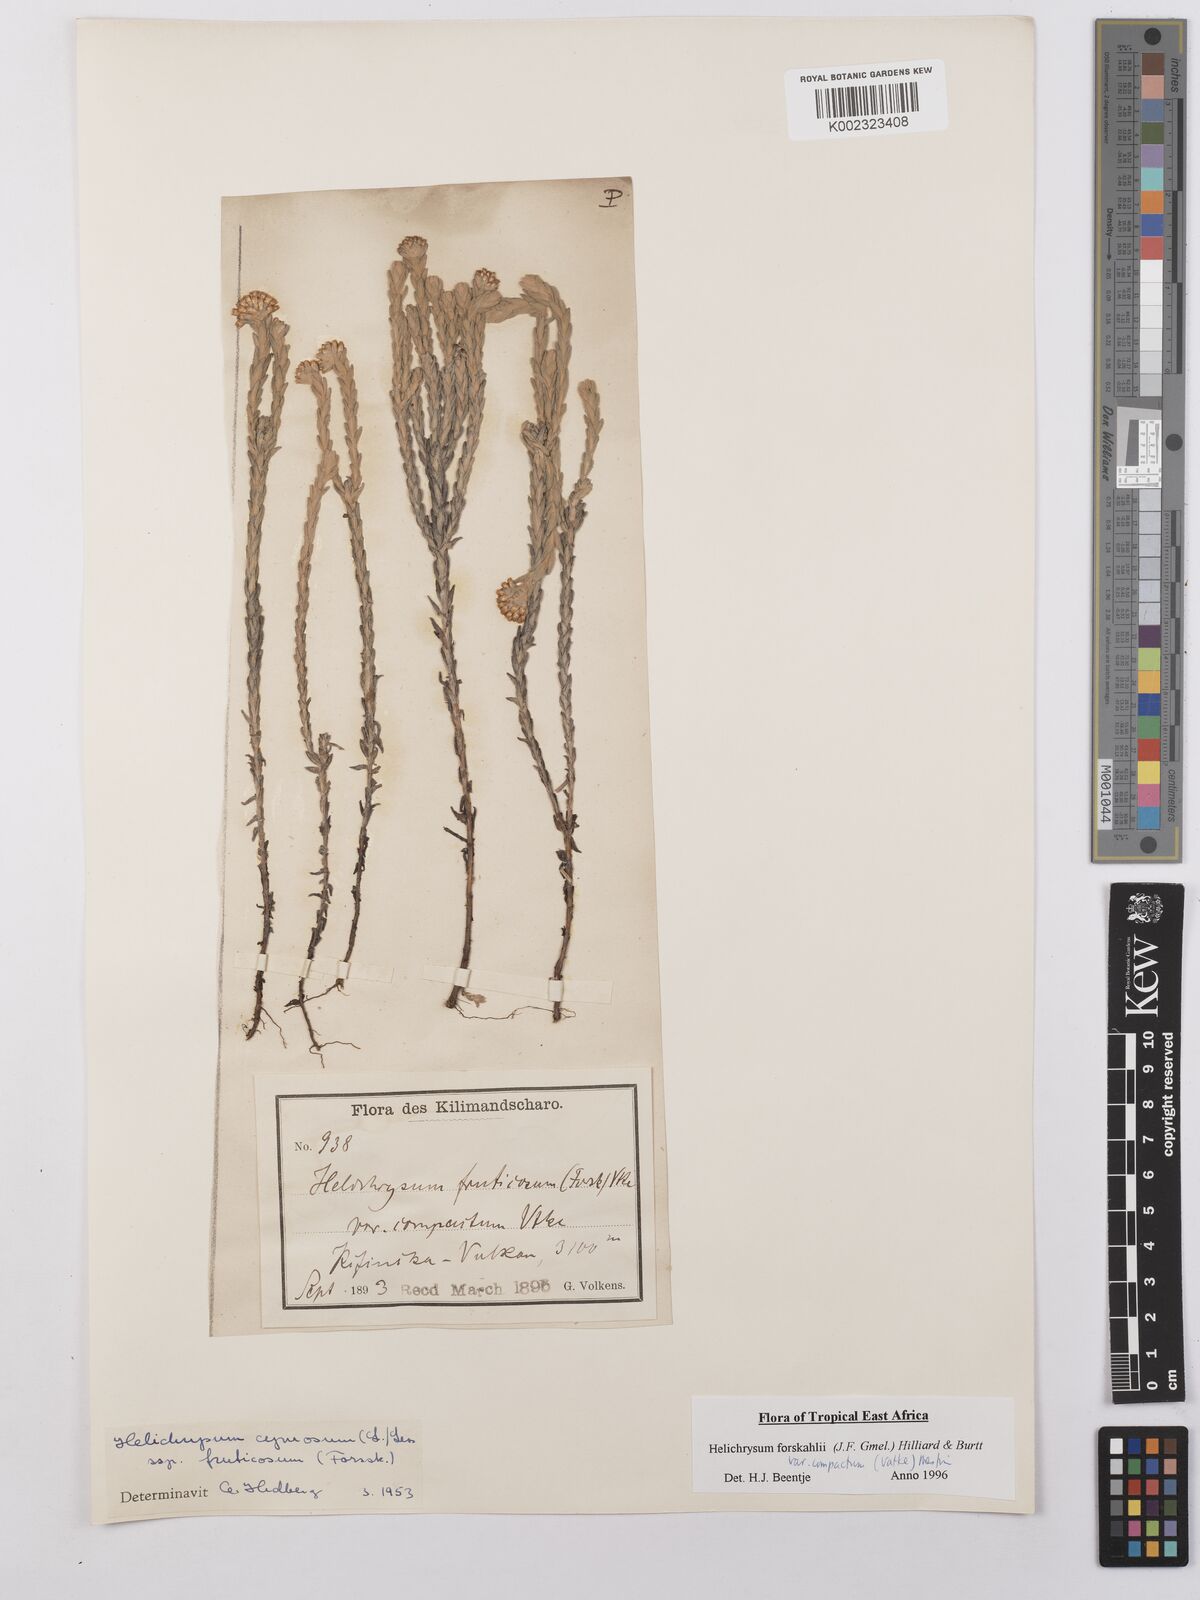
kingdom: Plantae
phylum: Tracheophyta
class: Magnoliopsida
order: Asterales
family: Asteraceae
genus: Helichrysum
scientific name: Helichrysum forskahlii
